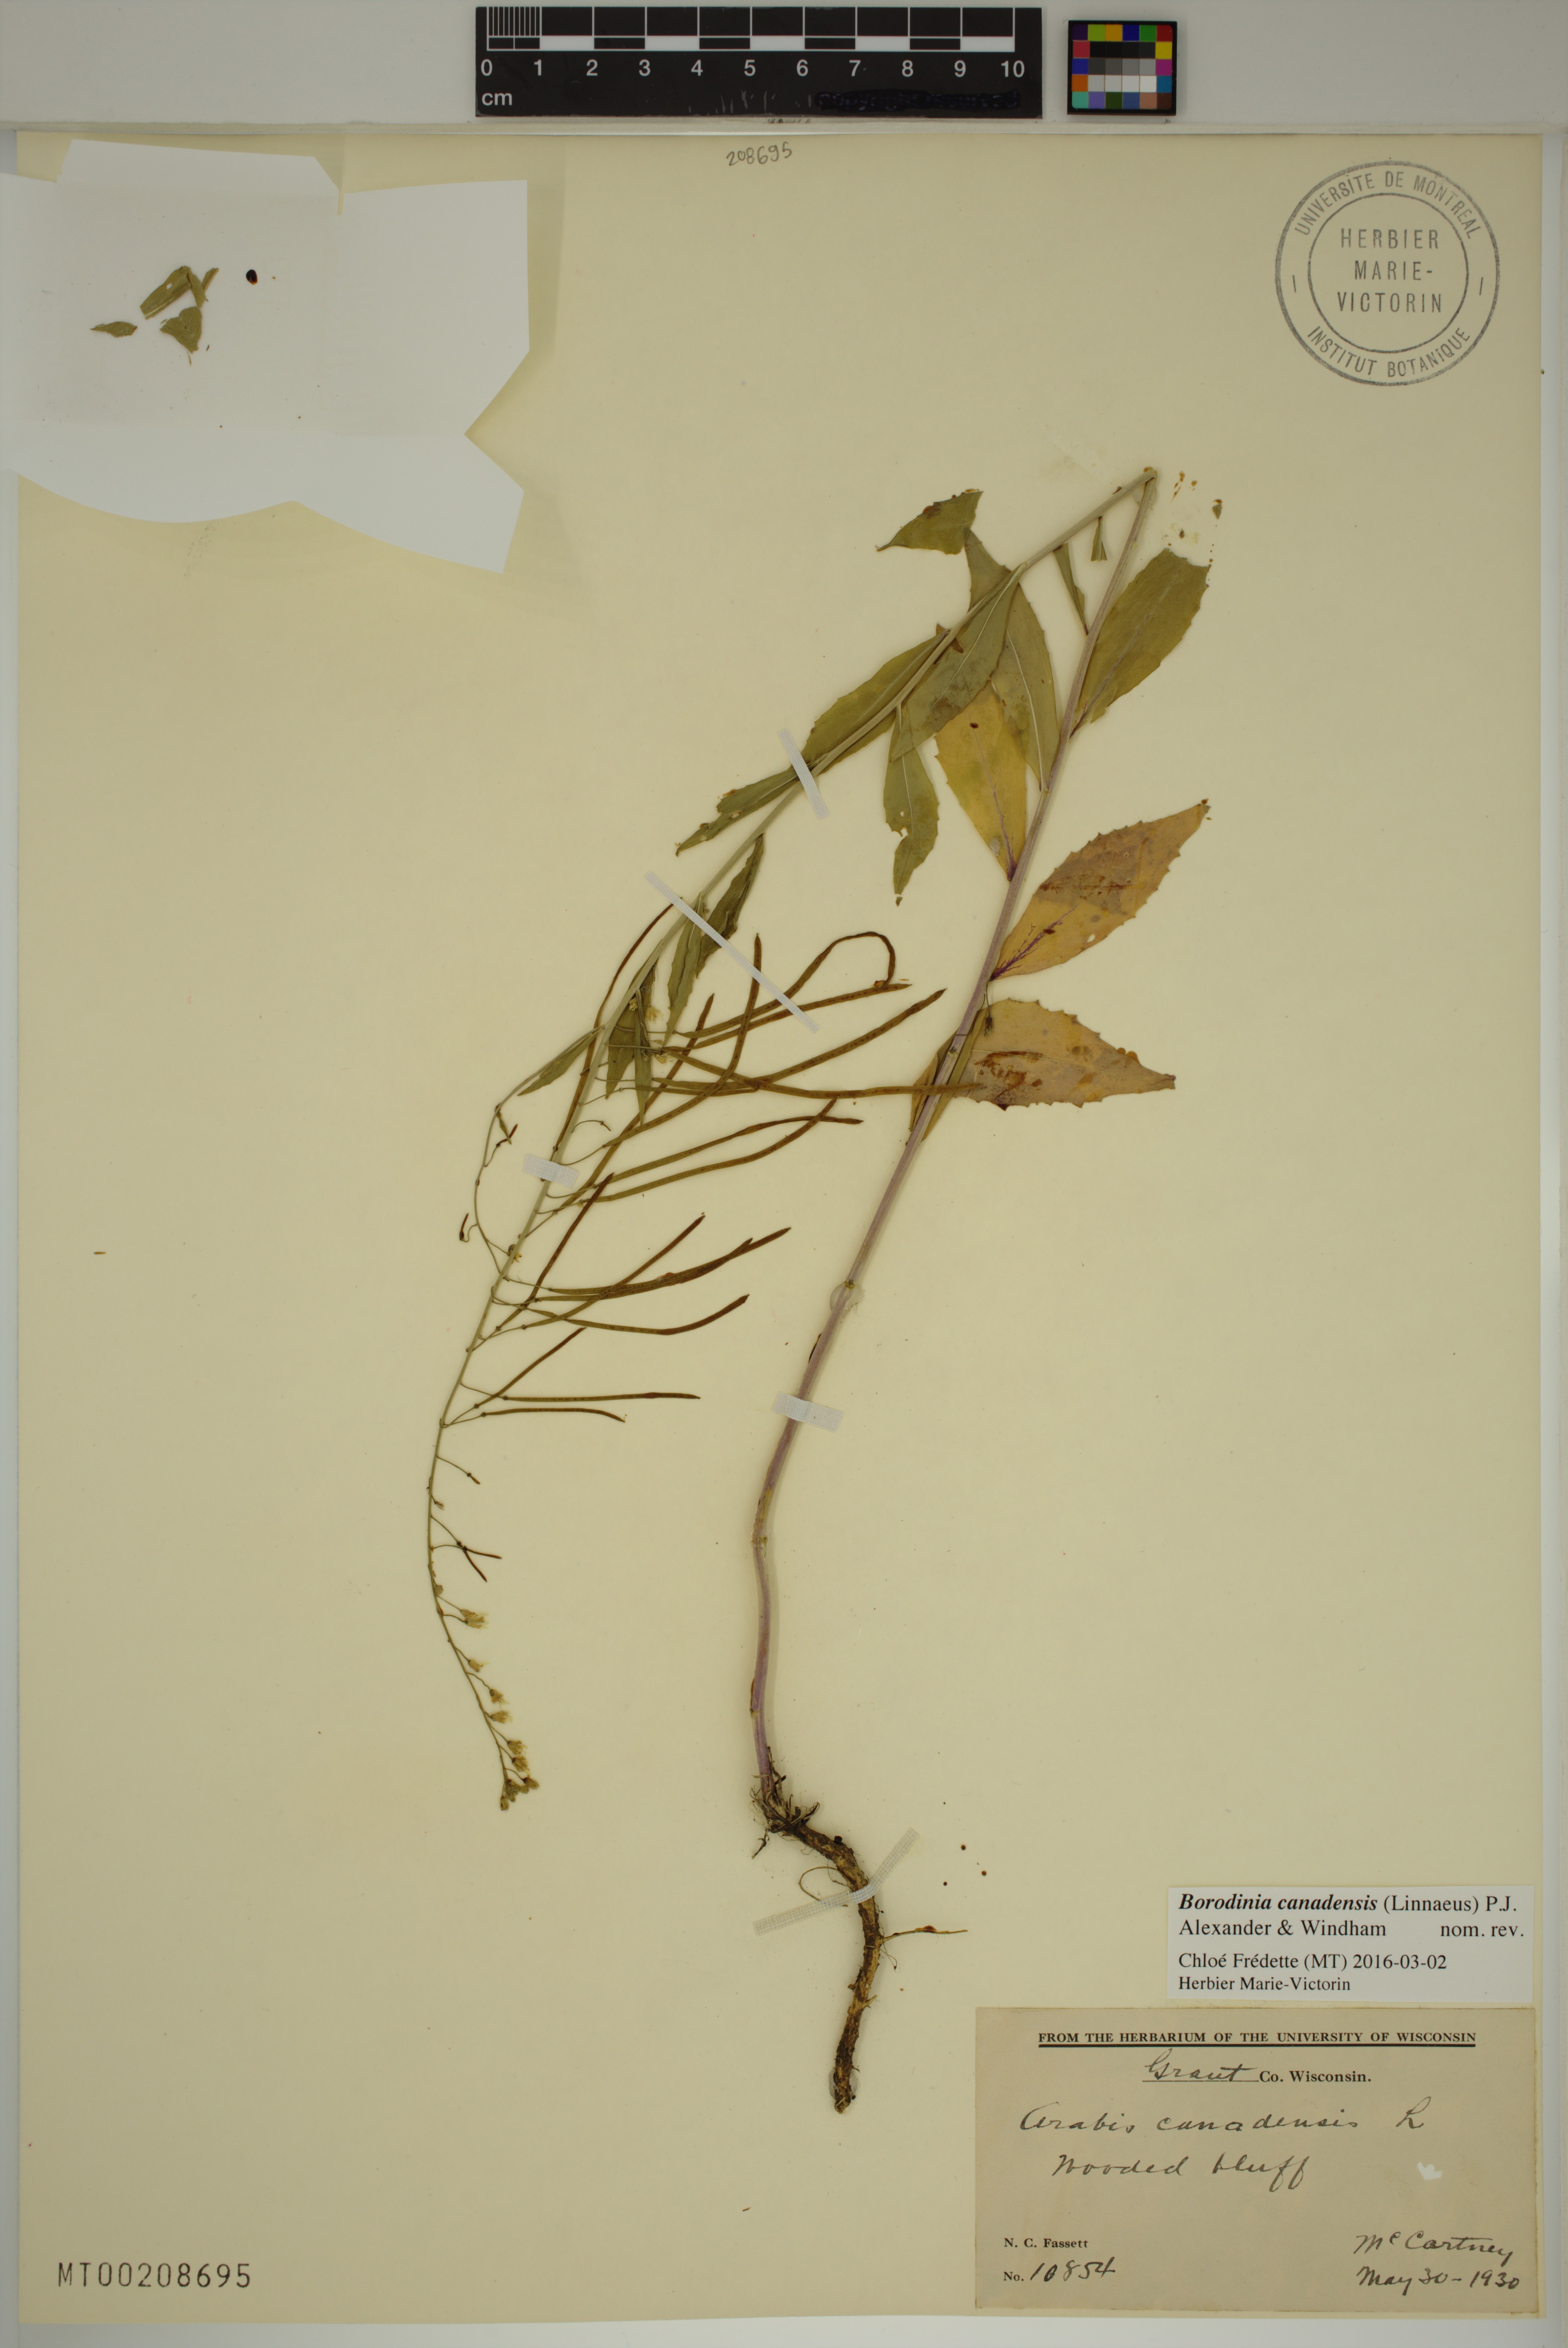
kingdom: Plantae
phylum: Tracheophyta
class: Magnoliopsida
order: Brassicales
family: Brassicaceae
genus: Borodinia
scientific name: Borodinia canadensis
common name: Sicklepod
